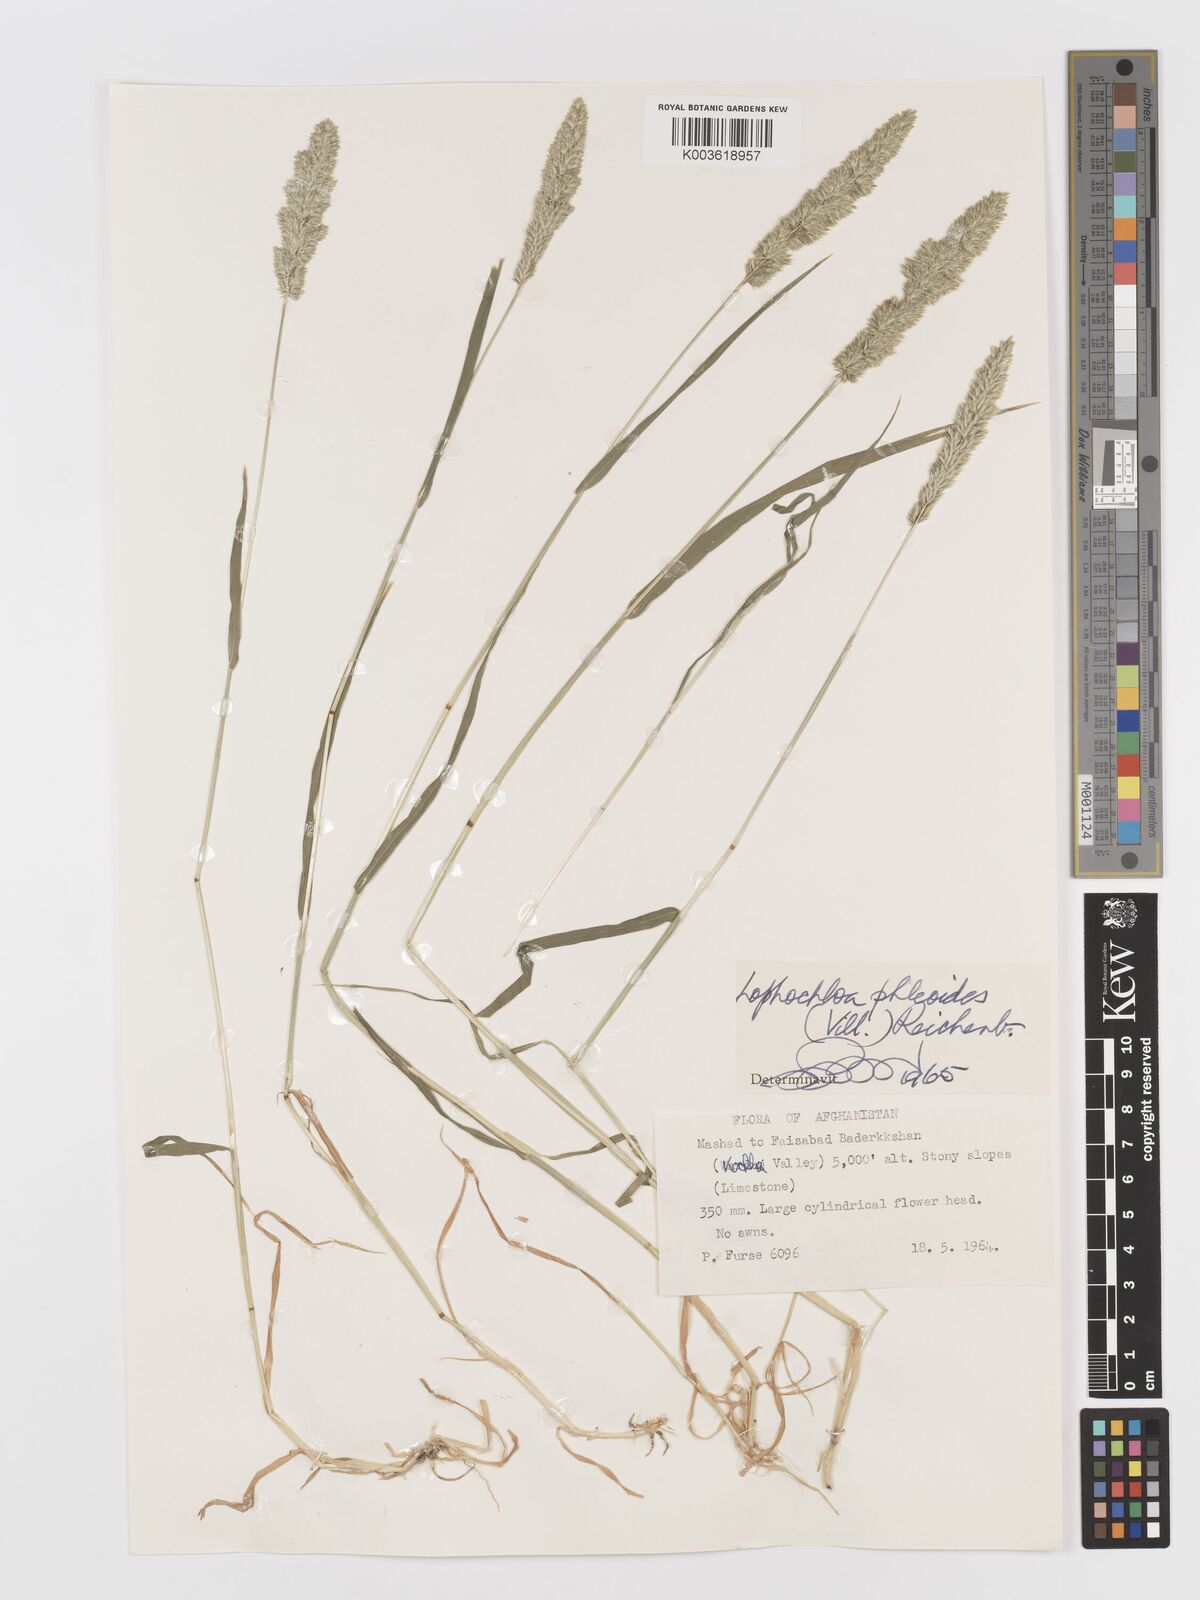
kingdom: Plantae
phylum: Tracheophyta
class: Liliopsida
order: Poales
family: Poaceae
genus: Rostraria
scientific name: Rostraria cristata
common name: Mediterranean hair-grass
